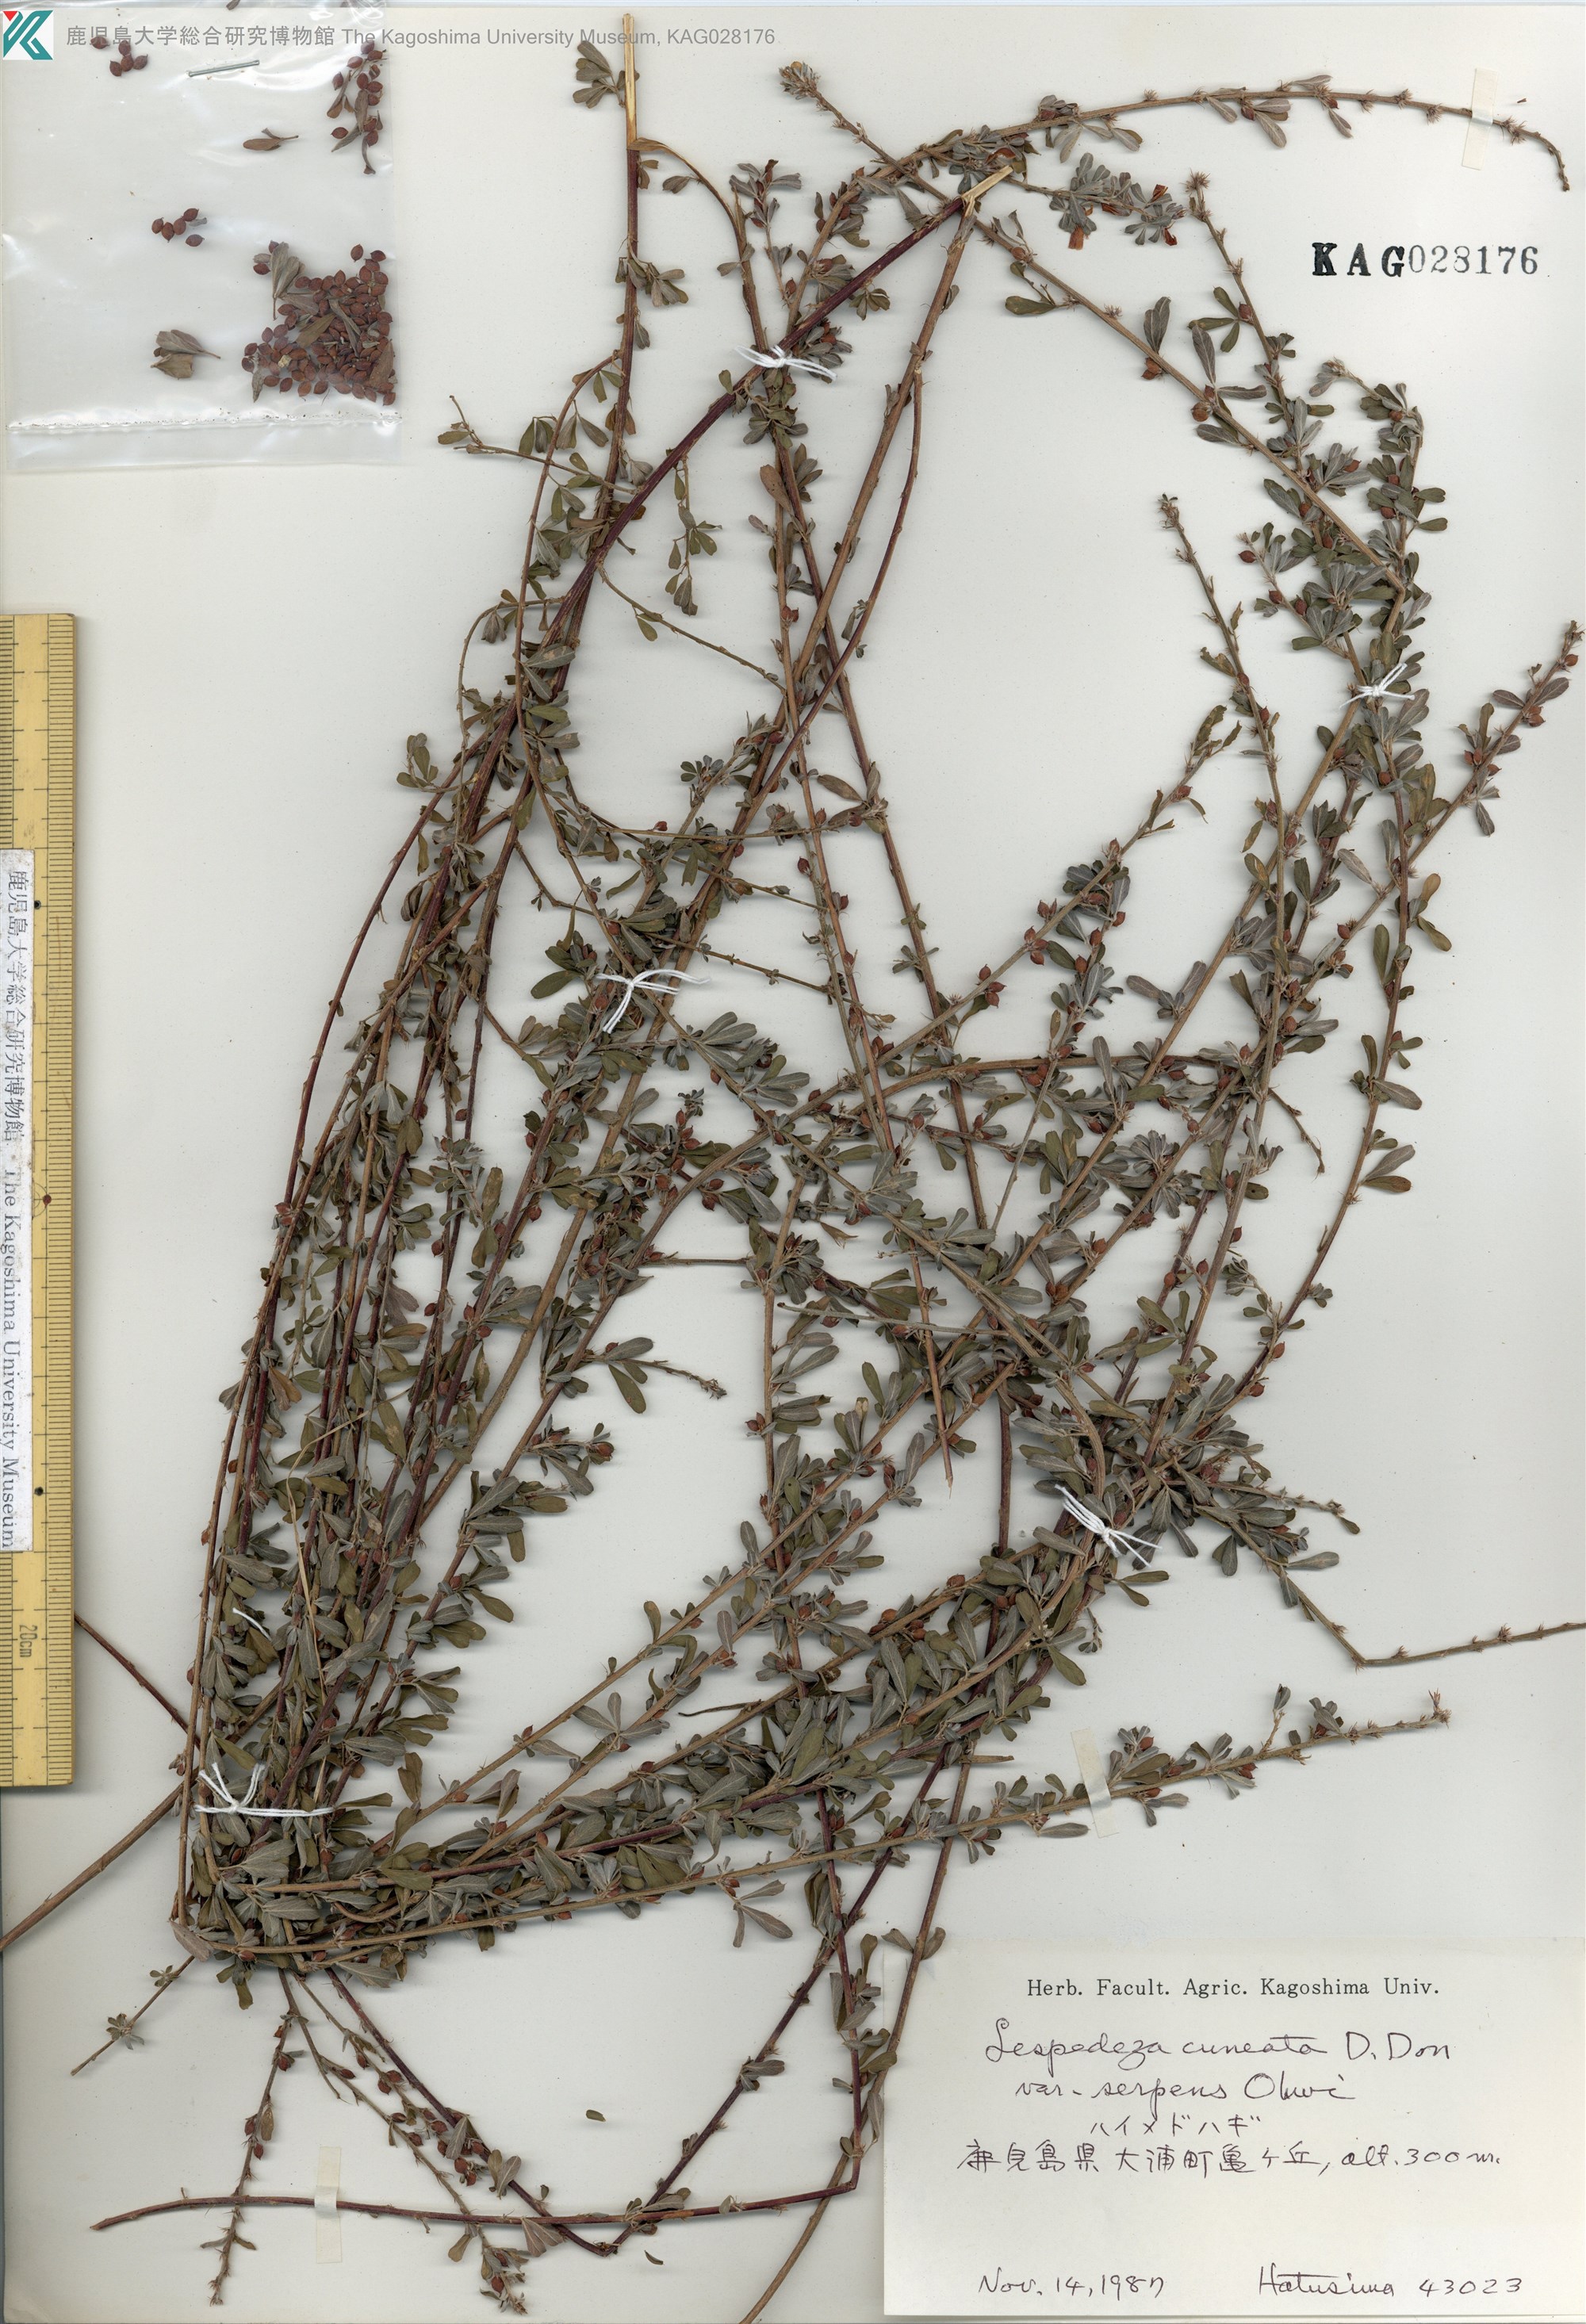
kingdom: Plantae
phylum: Tracheophyta
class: Magnoliopsida
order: Fabales
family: Fabaceae
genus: Lespedeza
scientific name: Lespedeza cuneata
